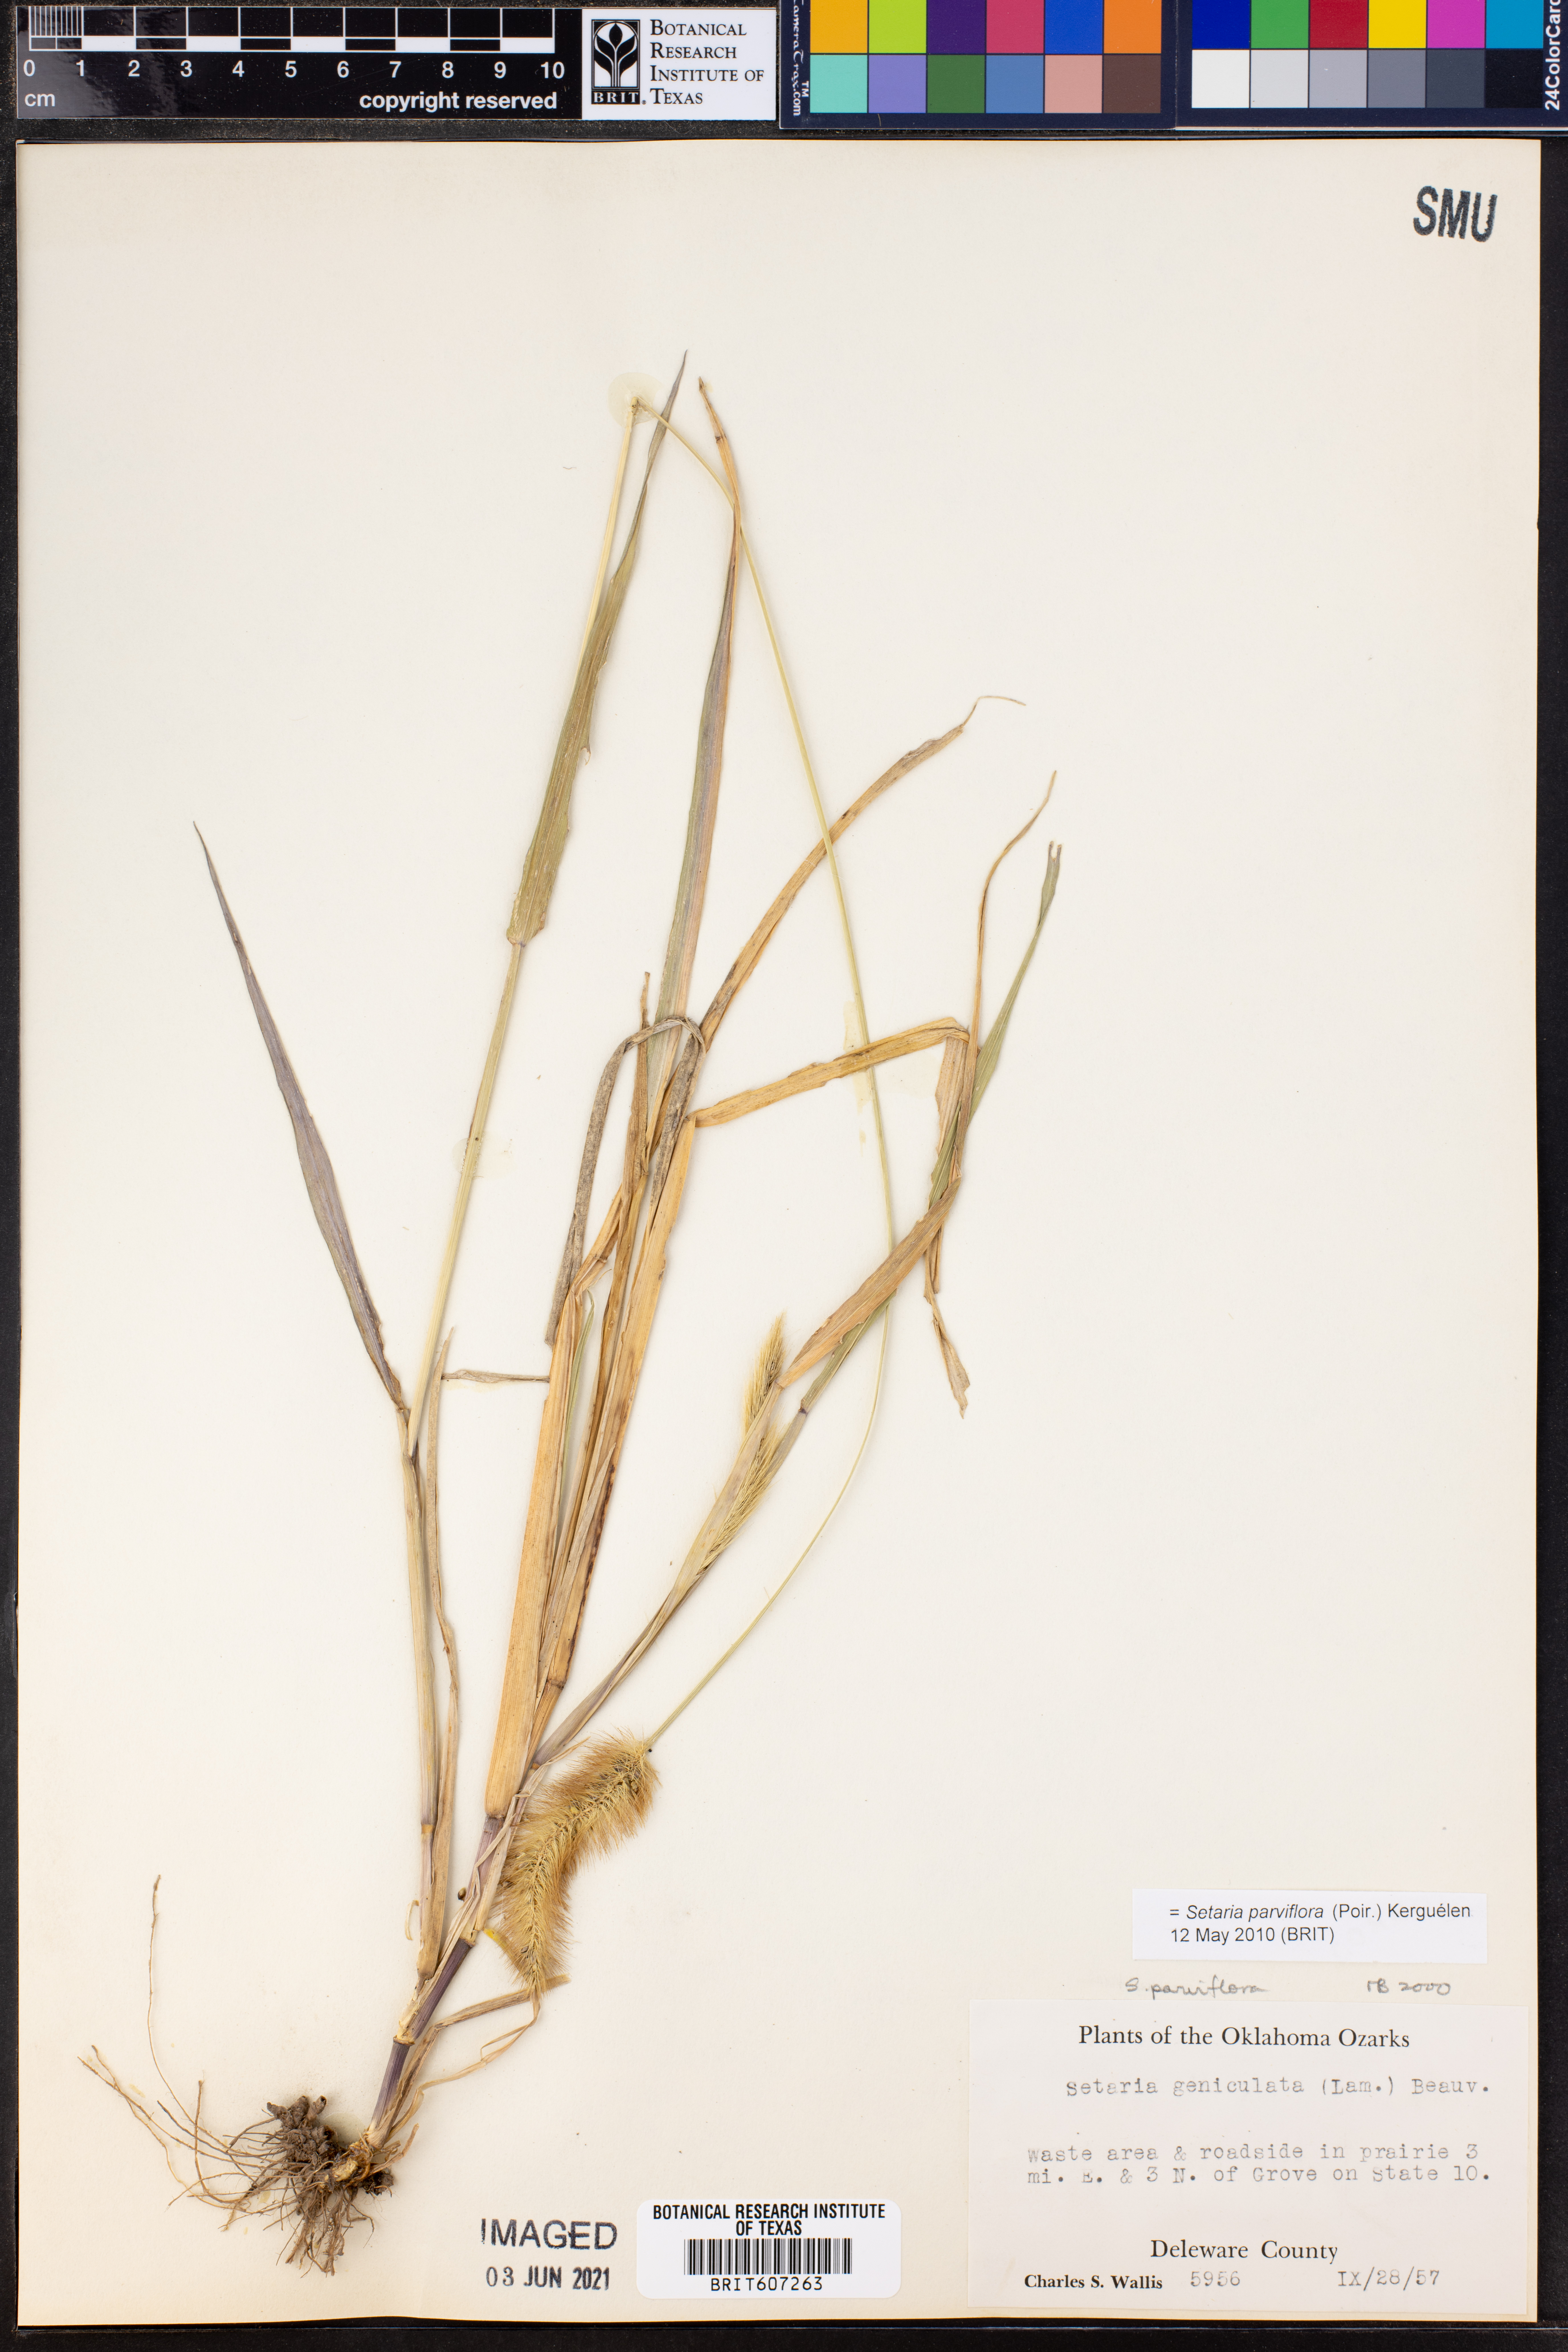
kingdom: Plantae
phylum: Tracheophyta
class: Liliopsida
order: Poales
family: Poaceae
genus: Setaria
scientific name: Setaria parviflora
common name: Knotroot bristle-grass
